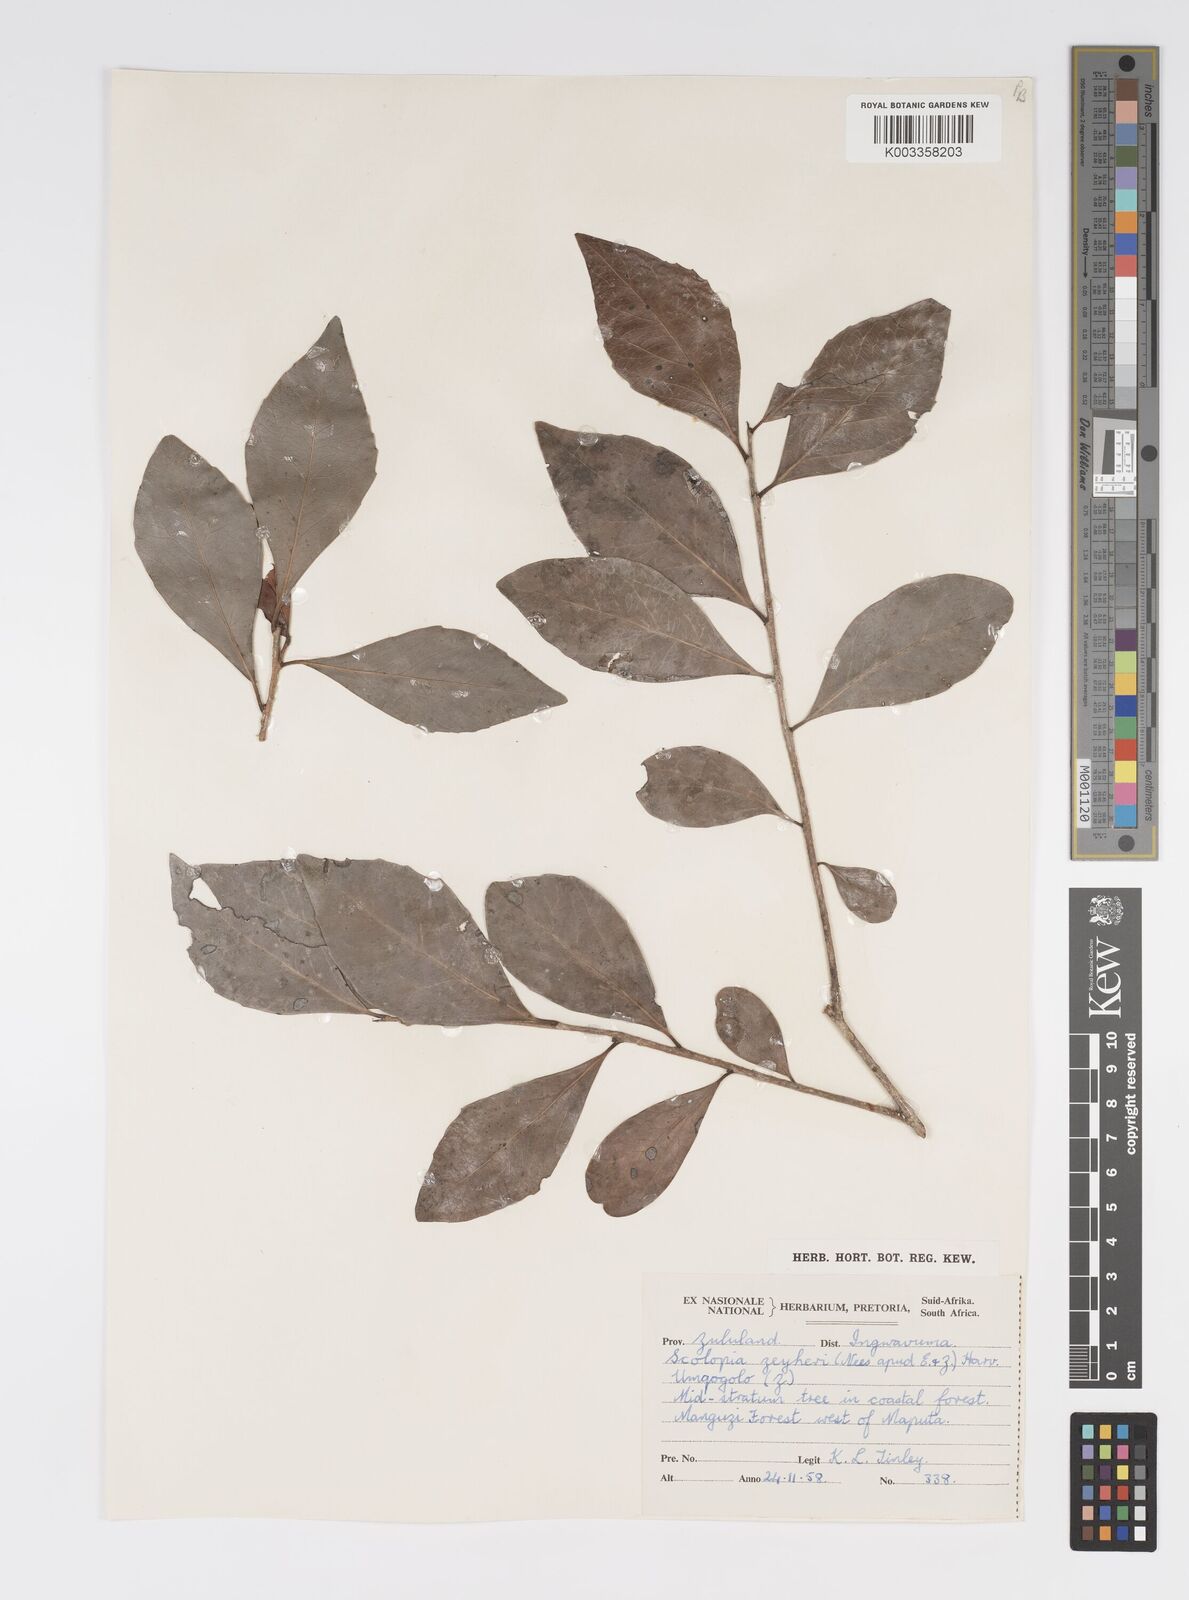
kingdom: Plantae
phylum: Tracheophyta
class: Magnoliopsida
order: Malpighiales
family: Salicaceae
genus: Scolopia
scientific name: Scolopia zeyheri
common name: Thorn pear
